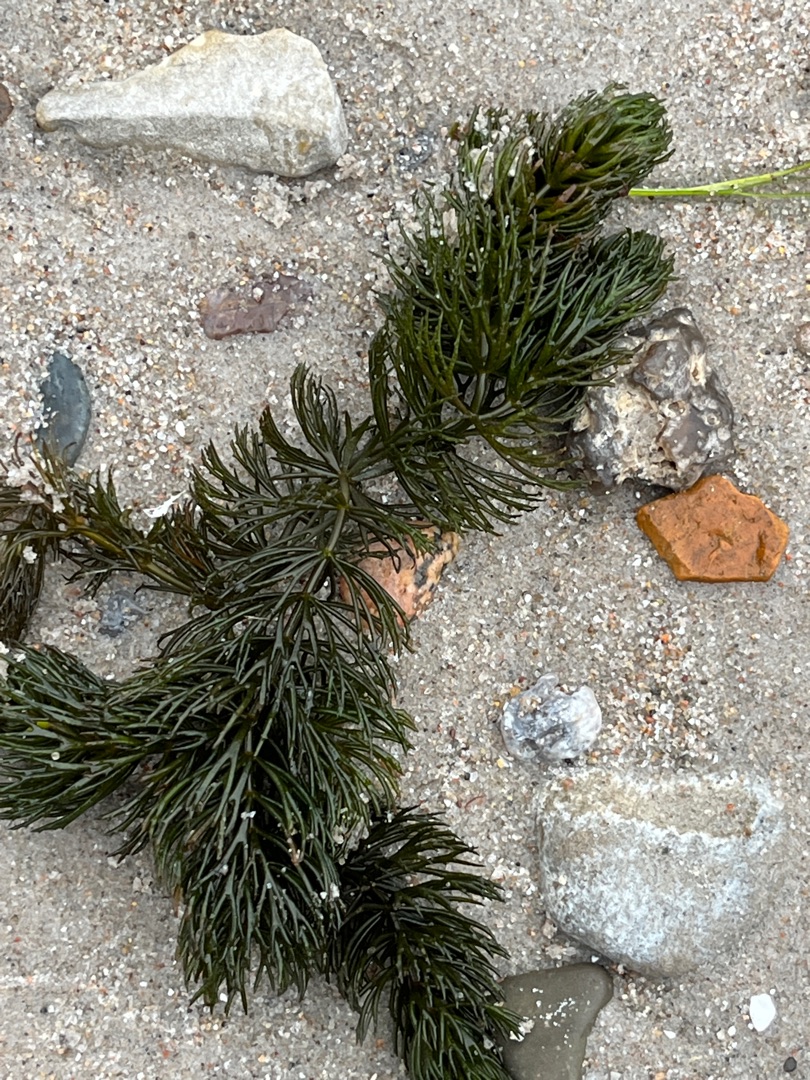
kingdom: Plantae
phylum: Tracheophyta
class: Magnoliopsida
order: Ceratophyllales
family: Ceratophyllaceae
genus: Ceratophyllum
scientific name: Ceratophyllum demersum
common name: Tornfrøet hornblad
